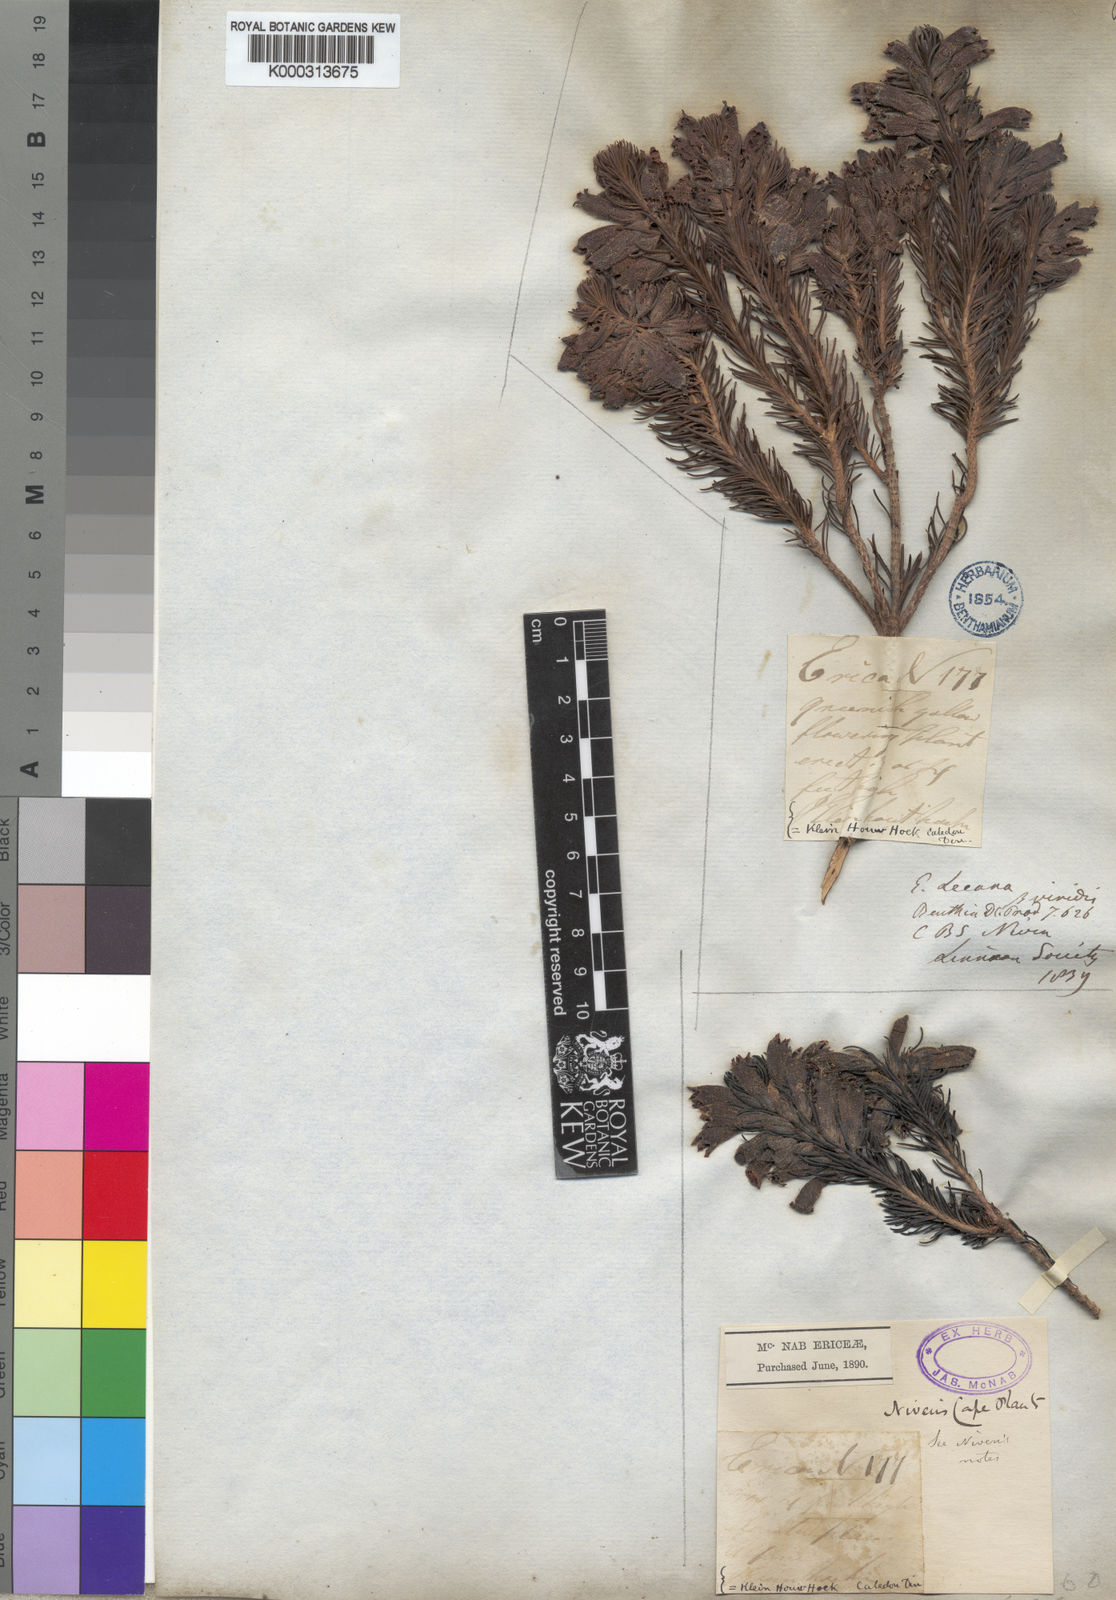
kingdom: Plantae
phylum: Tracheophyta
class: Magnoliopsida
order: Ericales
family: Ericaceae
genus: Erica
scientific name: Erica viscaria
